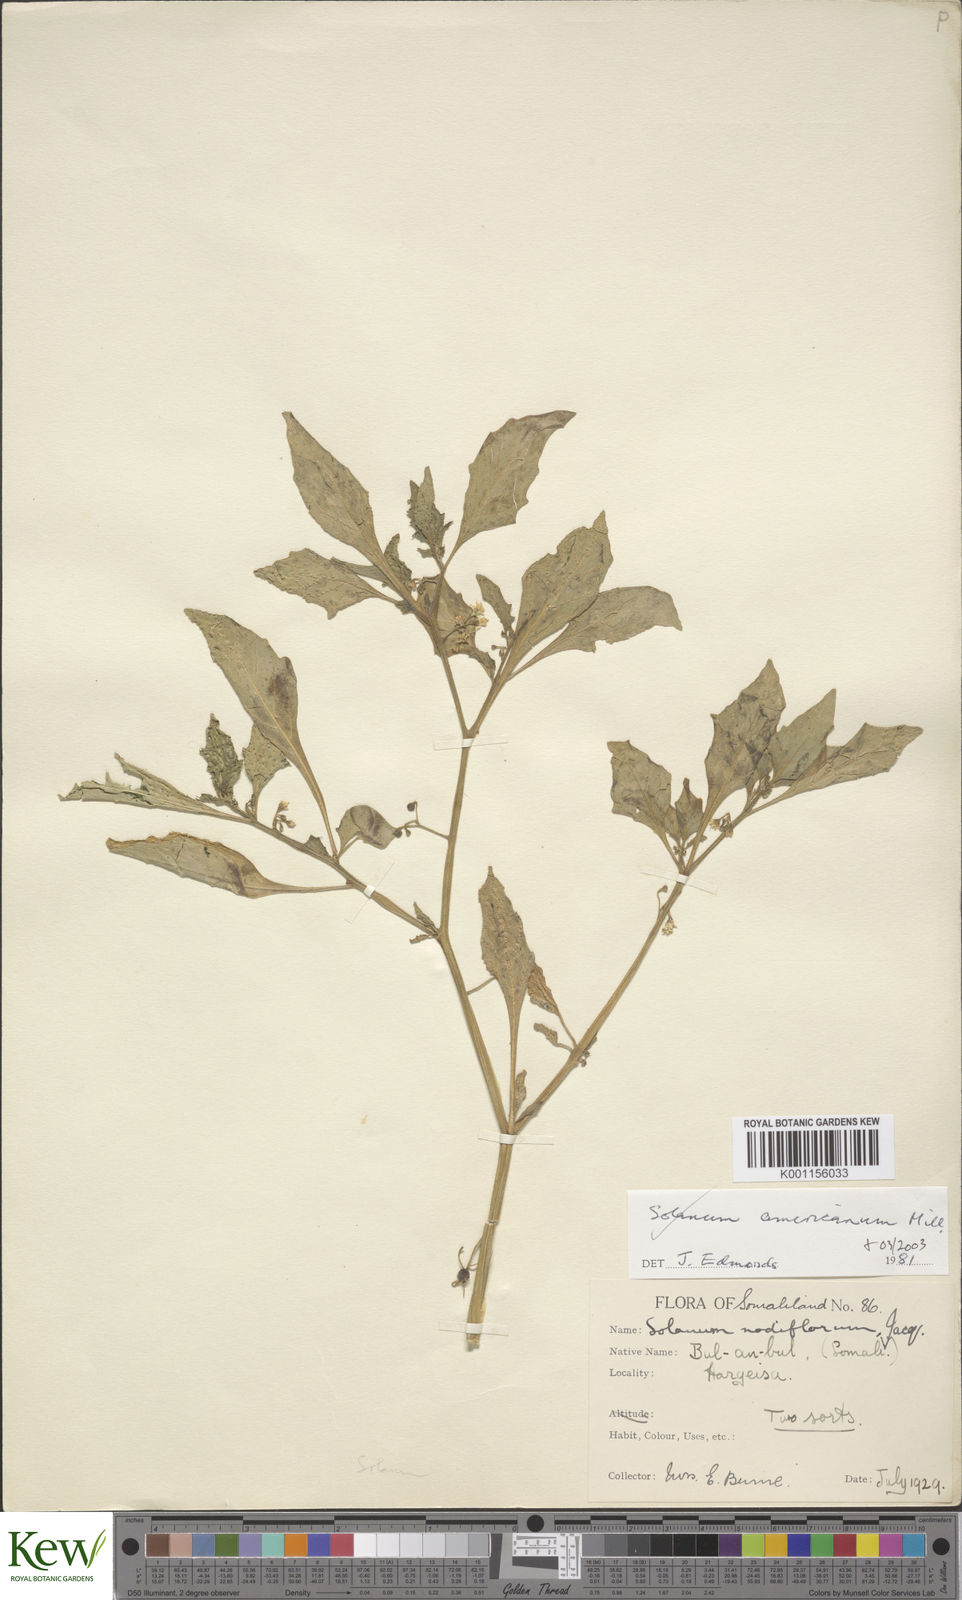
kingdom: Plantae
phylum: Tracheophyta
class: Magnoliopsida
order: Solanales
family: Solanaceae
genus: Solanum
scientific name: Solanum americanum
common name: American black nightshade
